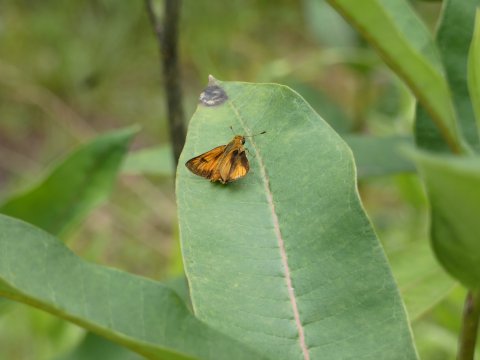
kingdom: Animalia
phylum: Arthropoda
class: Insecta
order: Lepidoptera
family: Hesperiidae
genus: Atrytone
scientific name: Atrytone delaware
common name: Delaware Skipper
